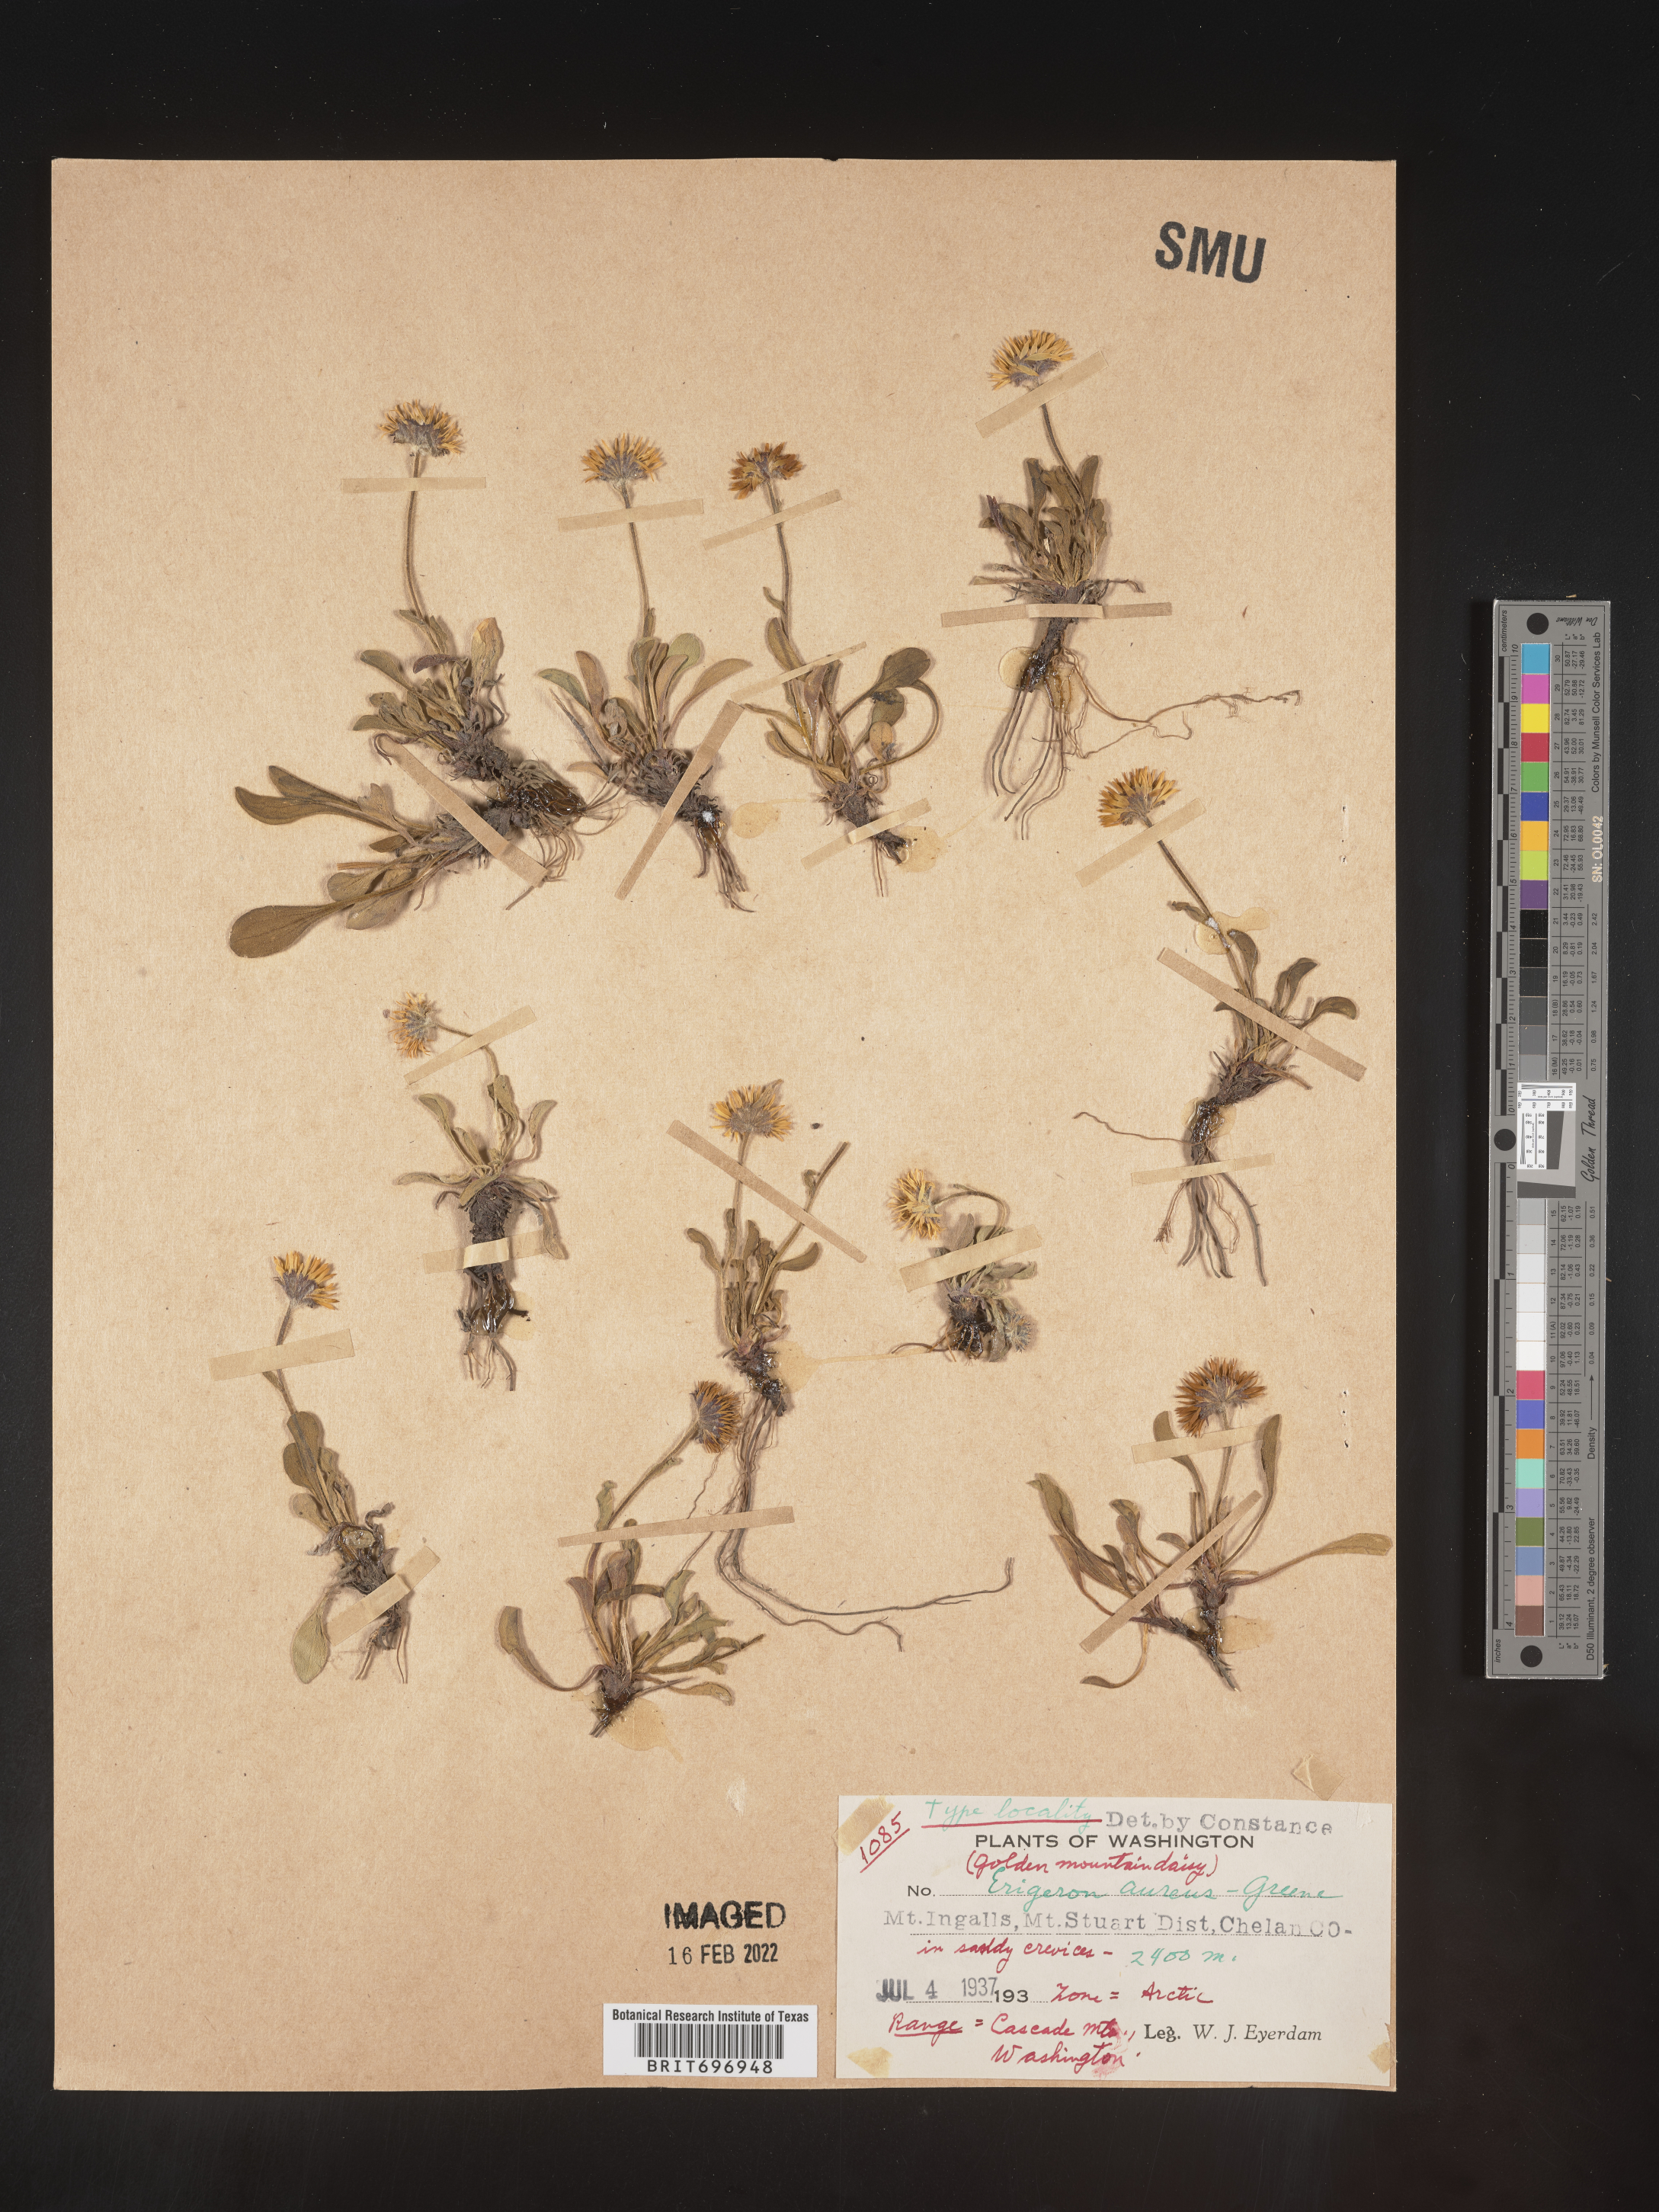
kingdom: Plantae
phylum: Tracheophyta
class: Magnoliopsida
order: Asterales
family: Asteraceae
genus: Erigeron
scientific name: Erigeron aureus
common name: Alpine yellow fleabane
